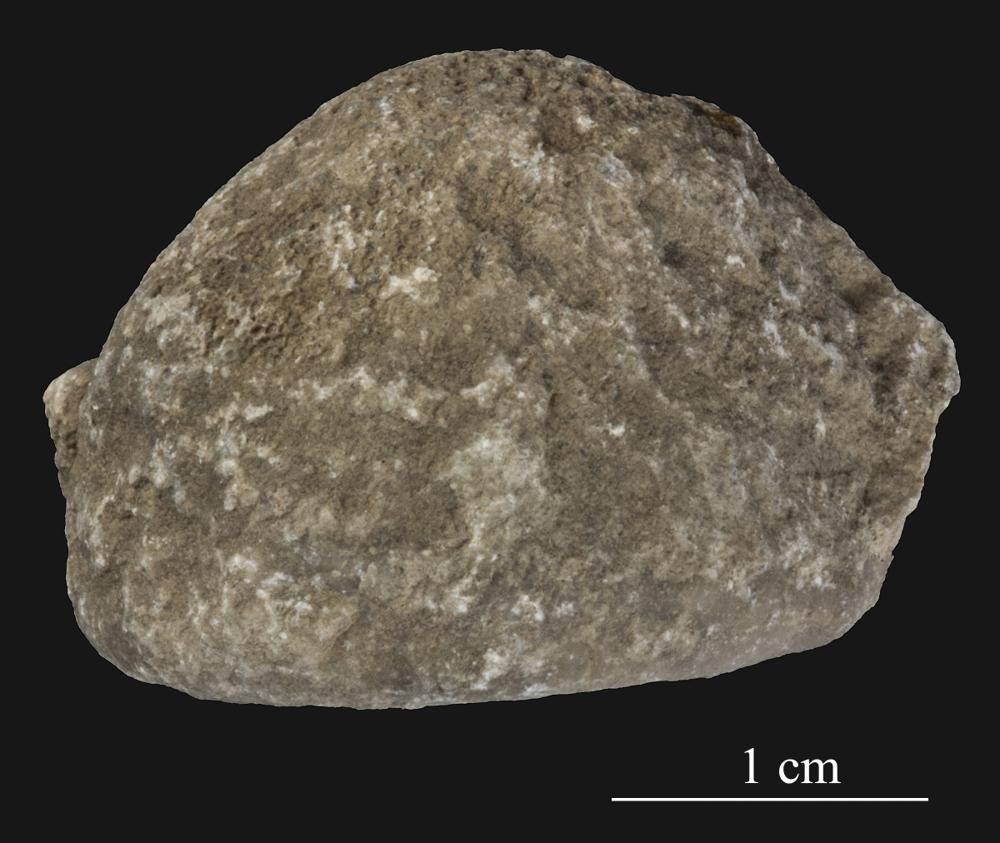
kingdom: Animalia
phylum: Bryozoa
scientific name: Bryozoa
